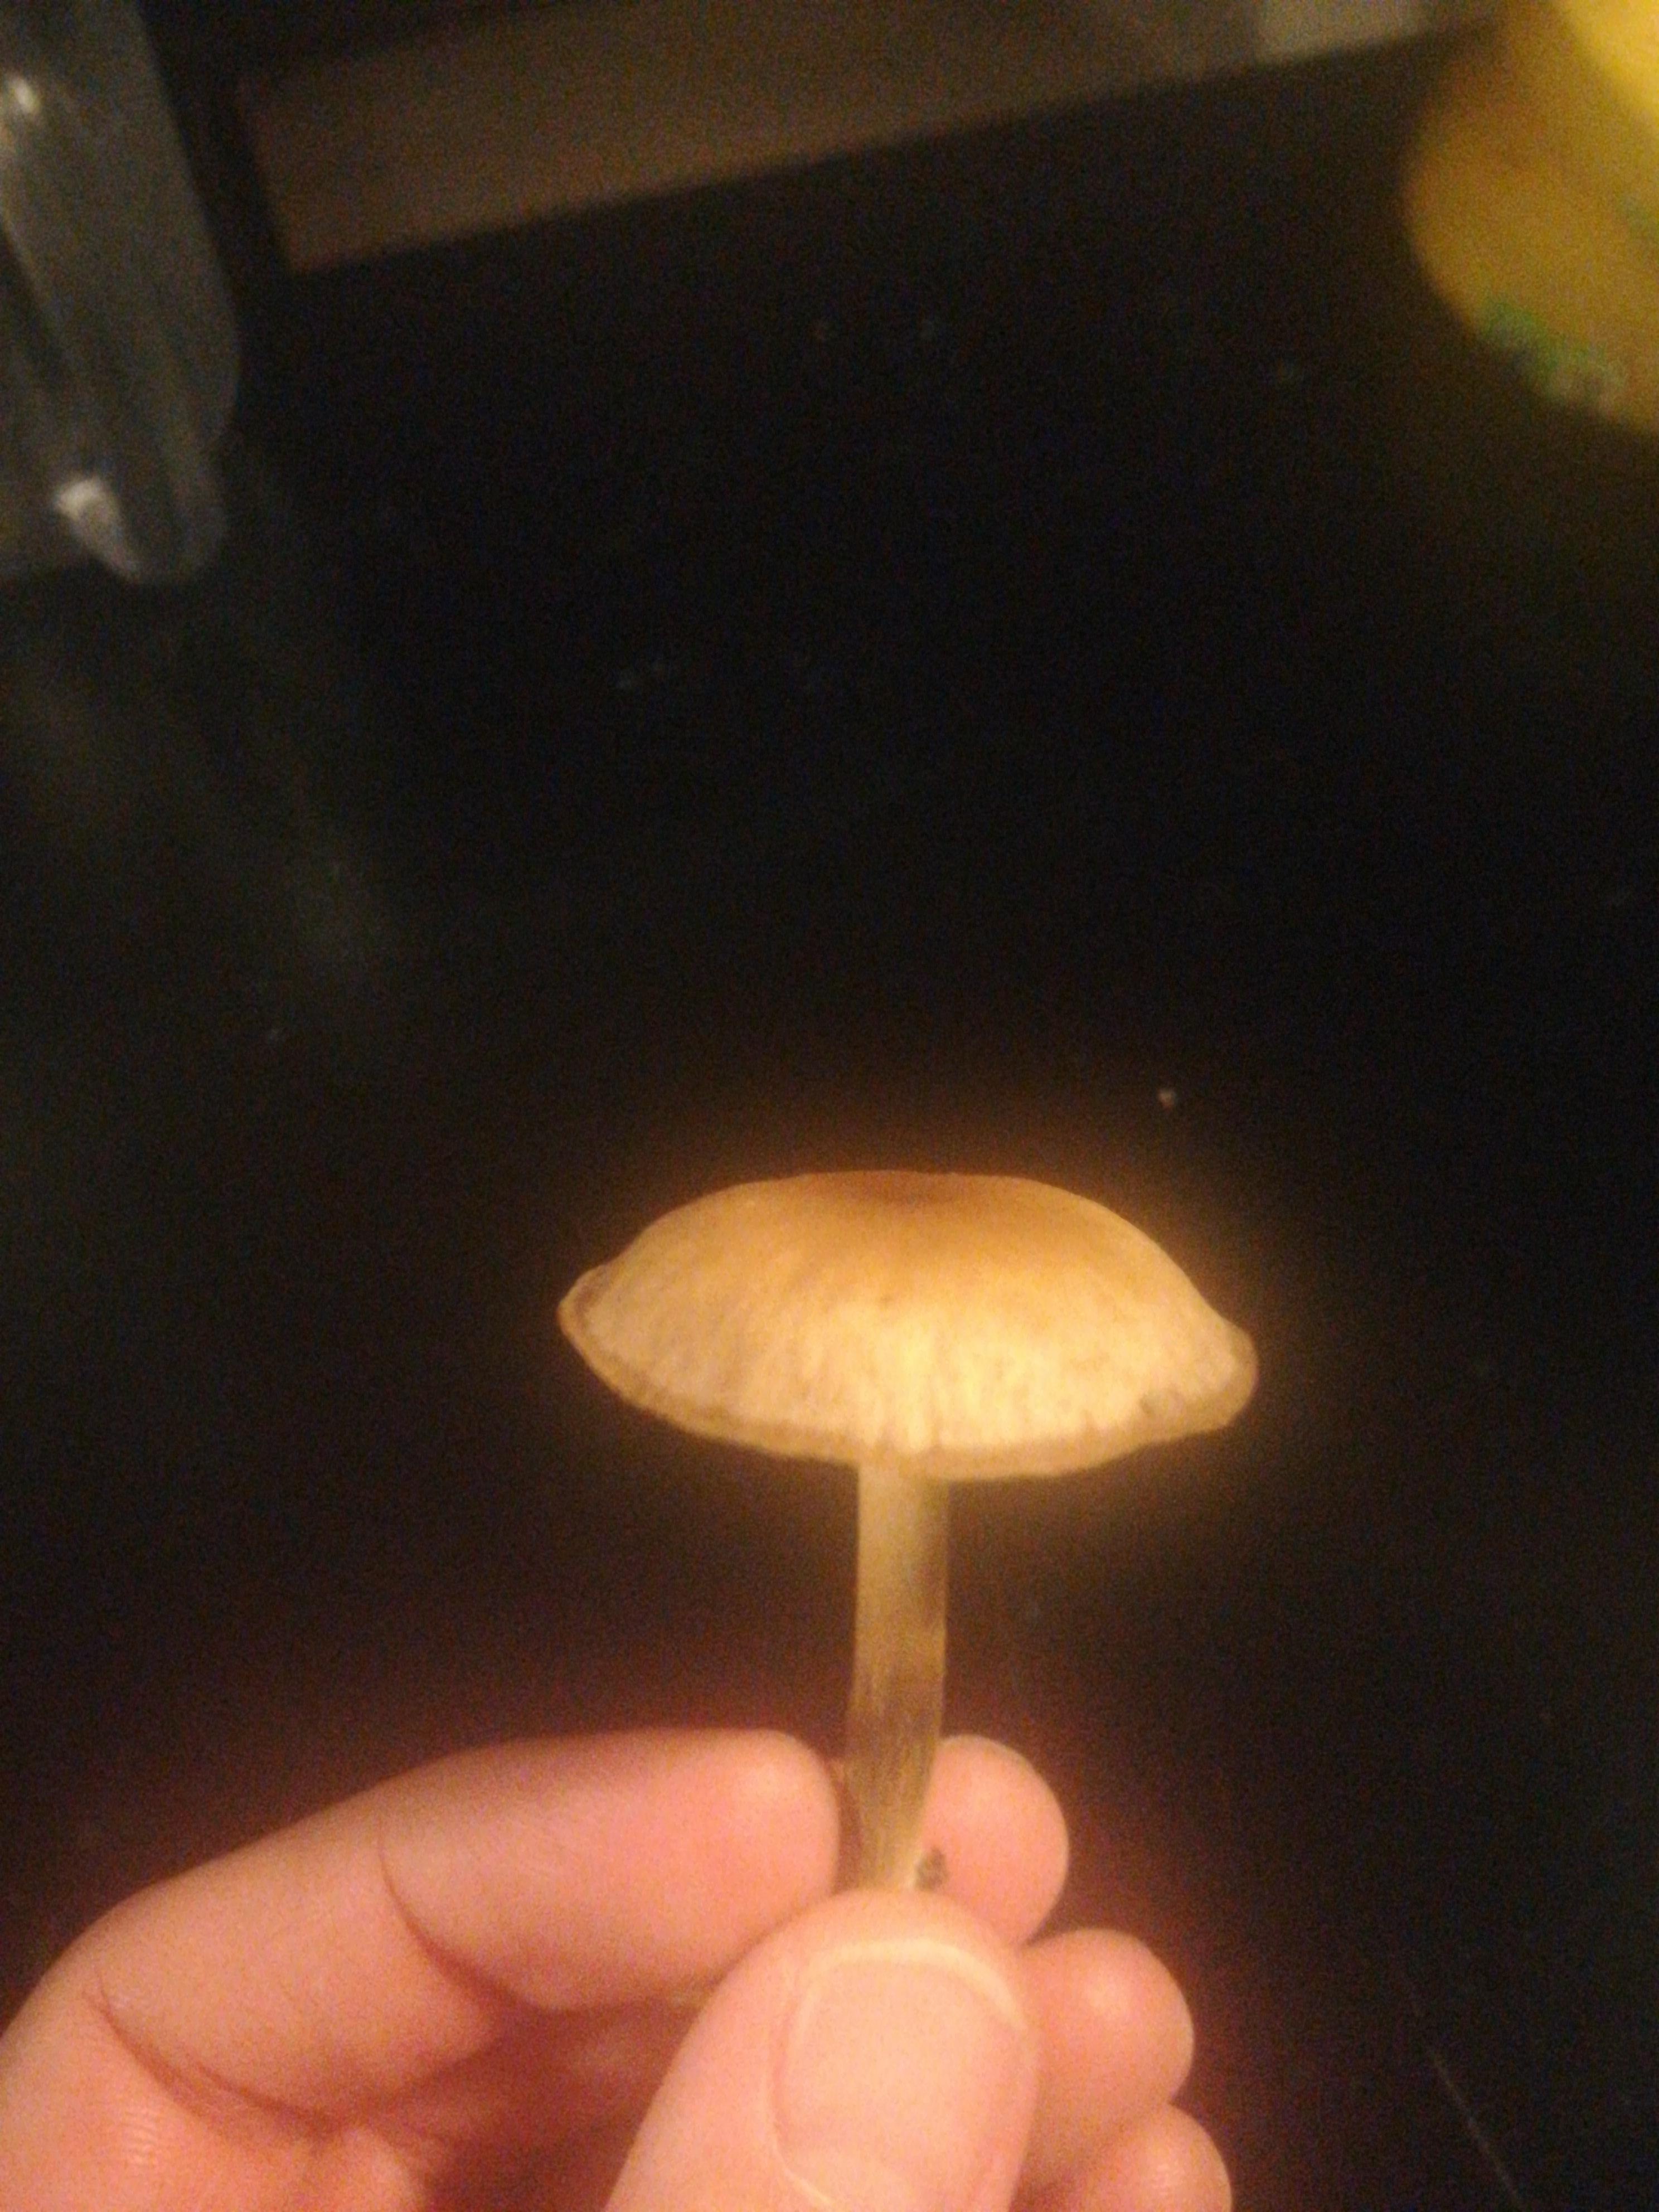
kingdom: Fungi
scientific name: Fungi
